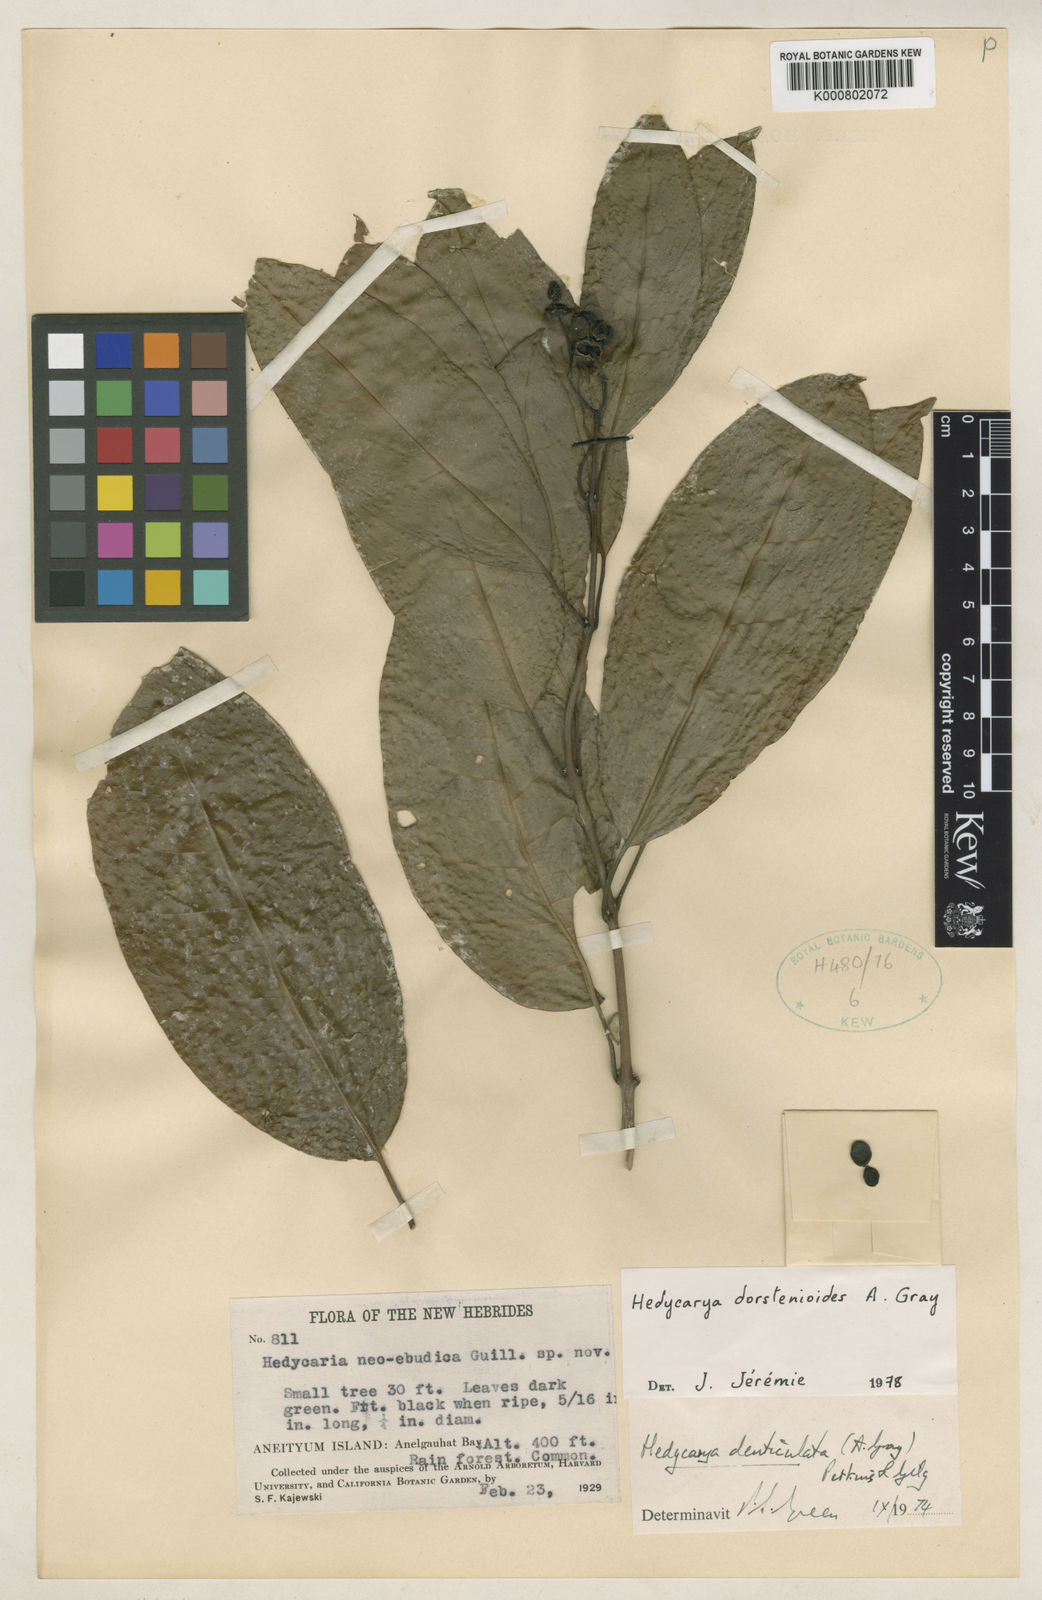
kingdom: Plantae
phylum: Tracheophyta
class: Magnoliopsida
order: Laurales
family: Monimiaceae
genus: Hedycarya
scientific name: Hedycarya dorstenioides
